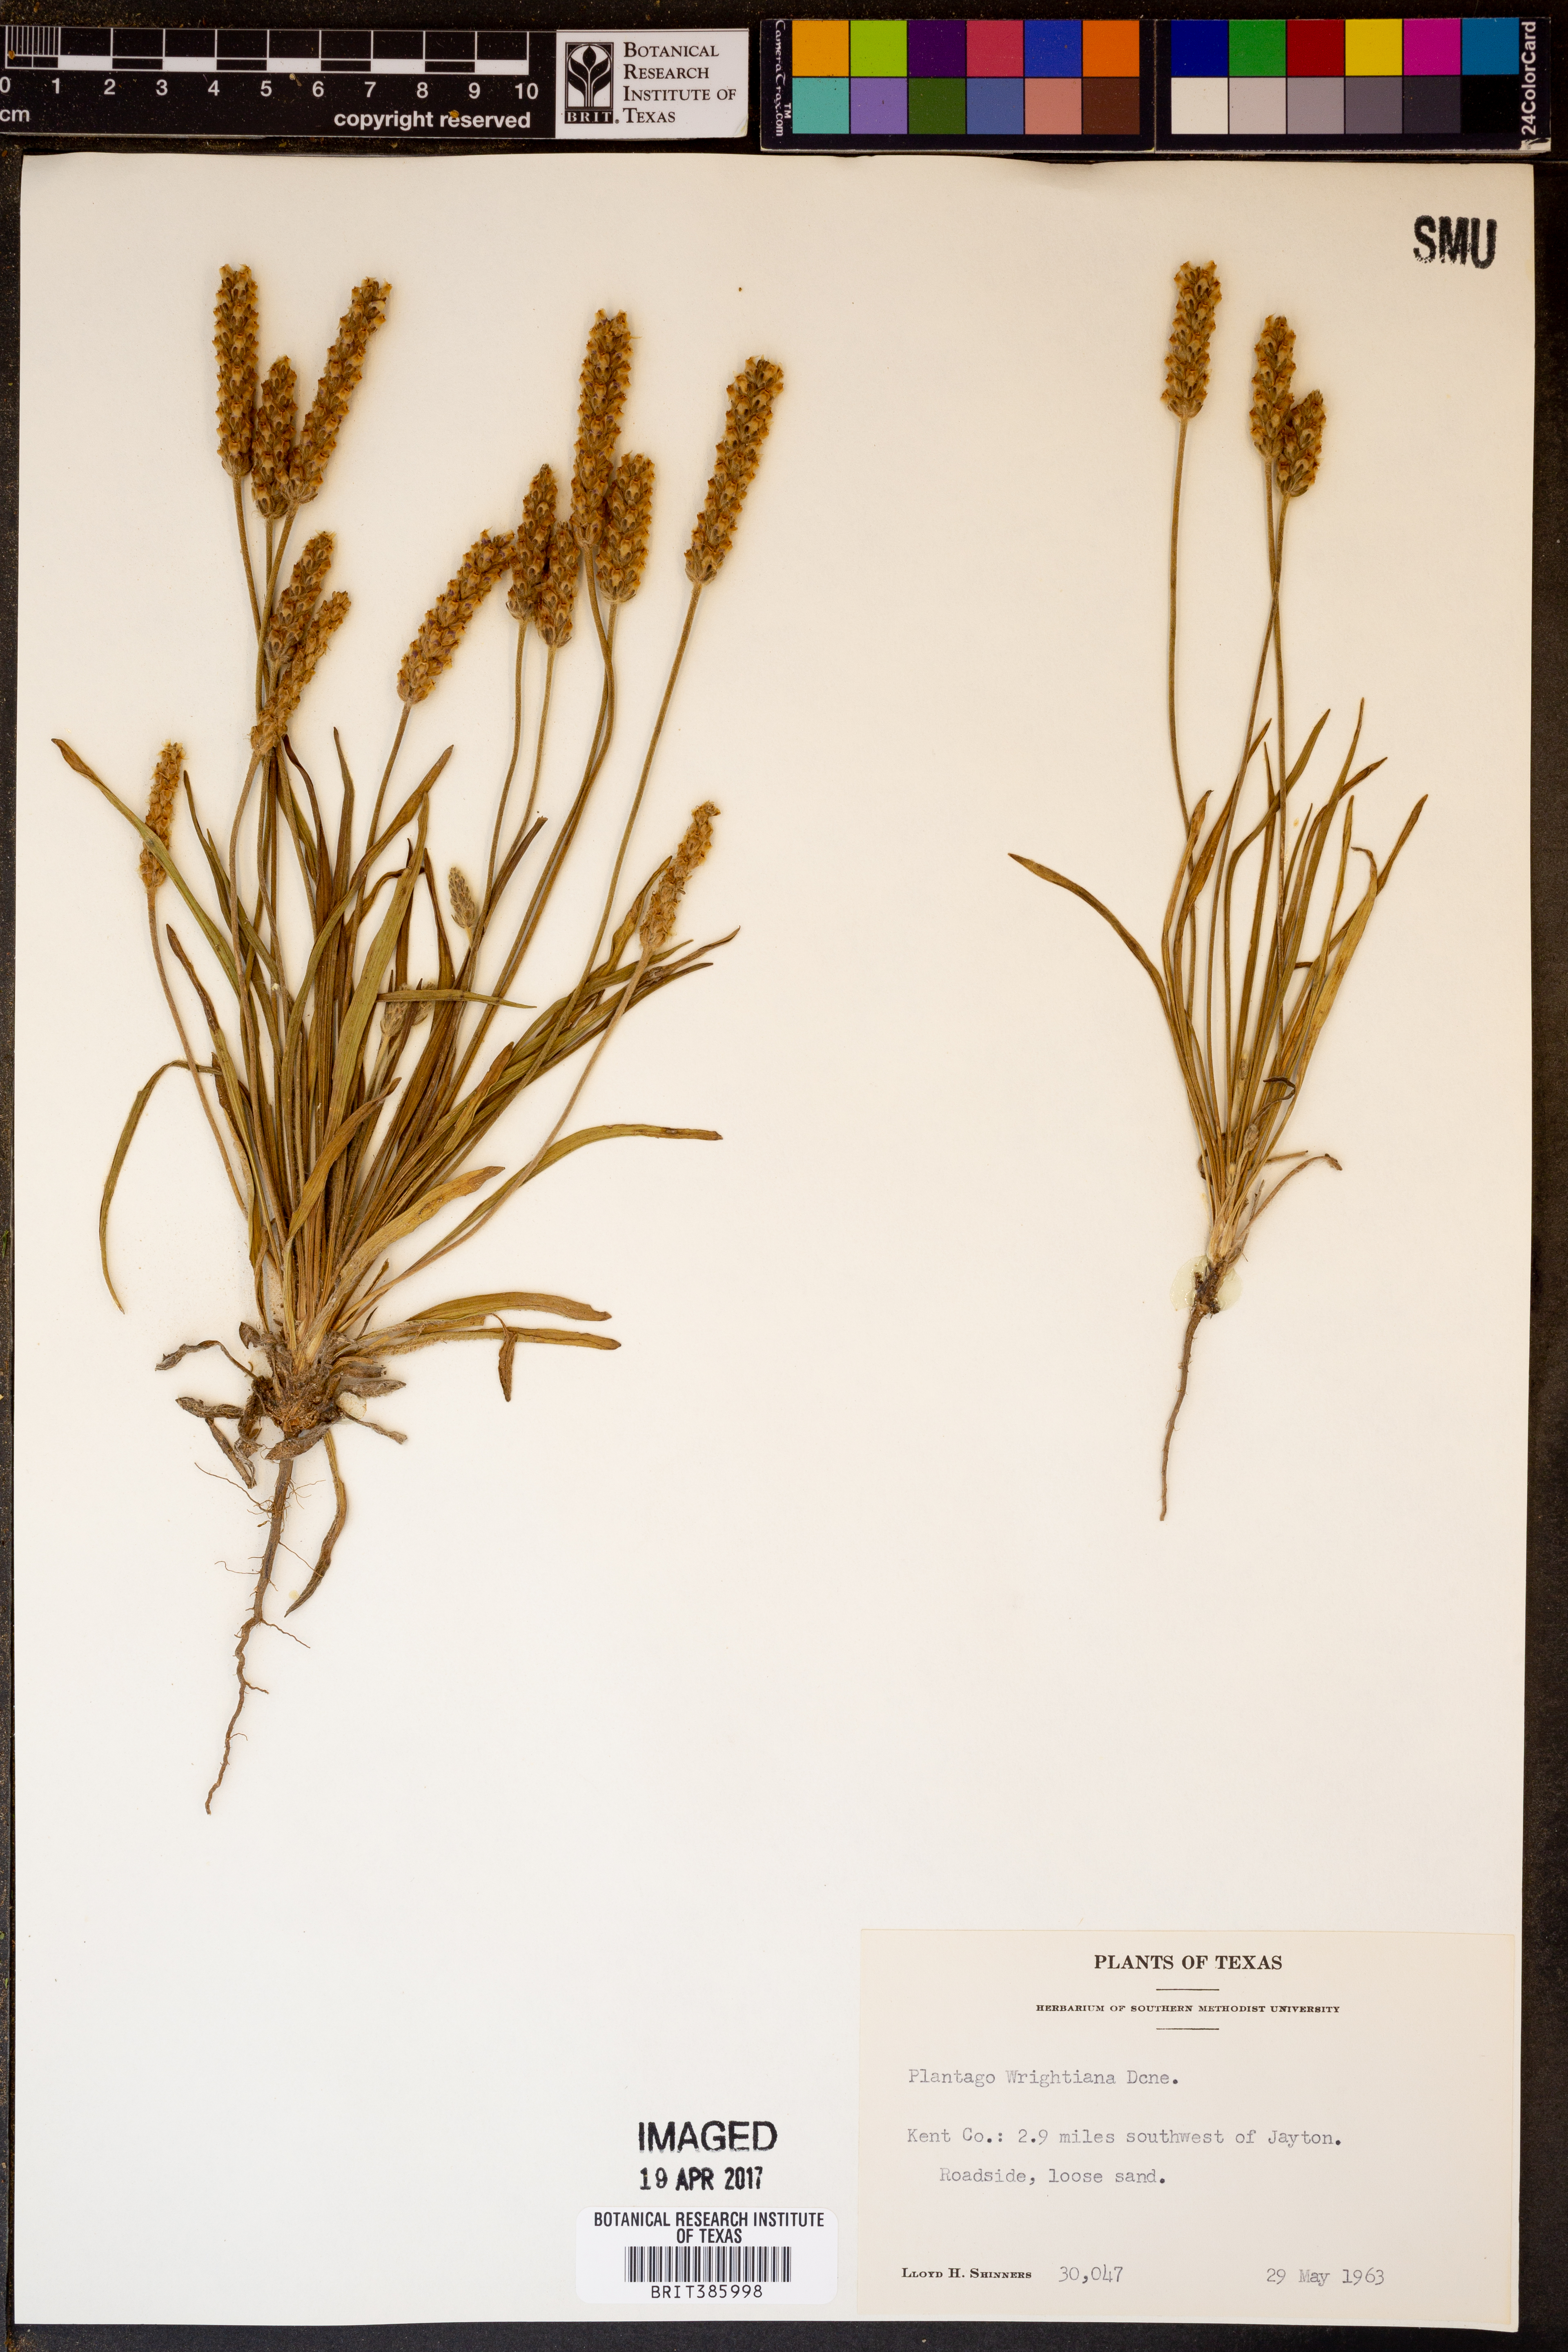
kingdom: Plantae
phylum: Tracheophyta
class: Magnoliopsida
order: Lamiales
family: Plantaginaceae
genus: Plantago
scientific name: Plantago wrightiana
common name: Wright's plantain
